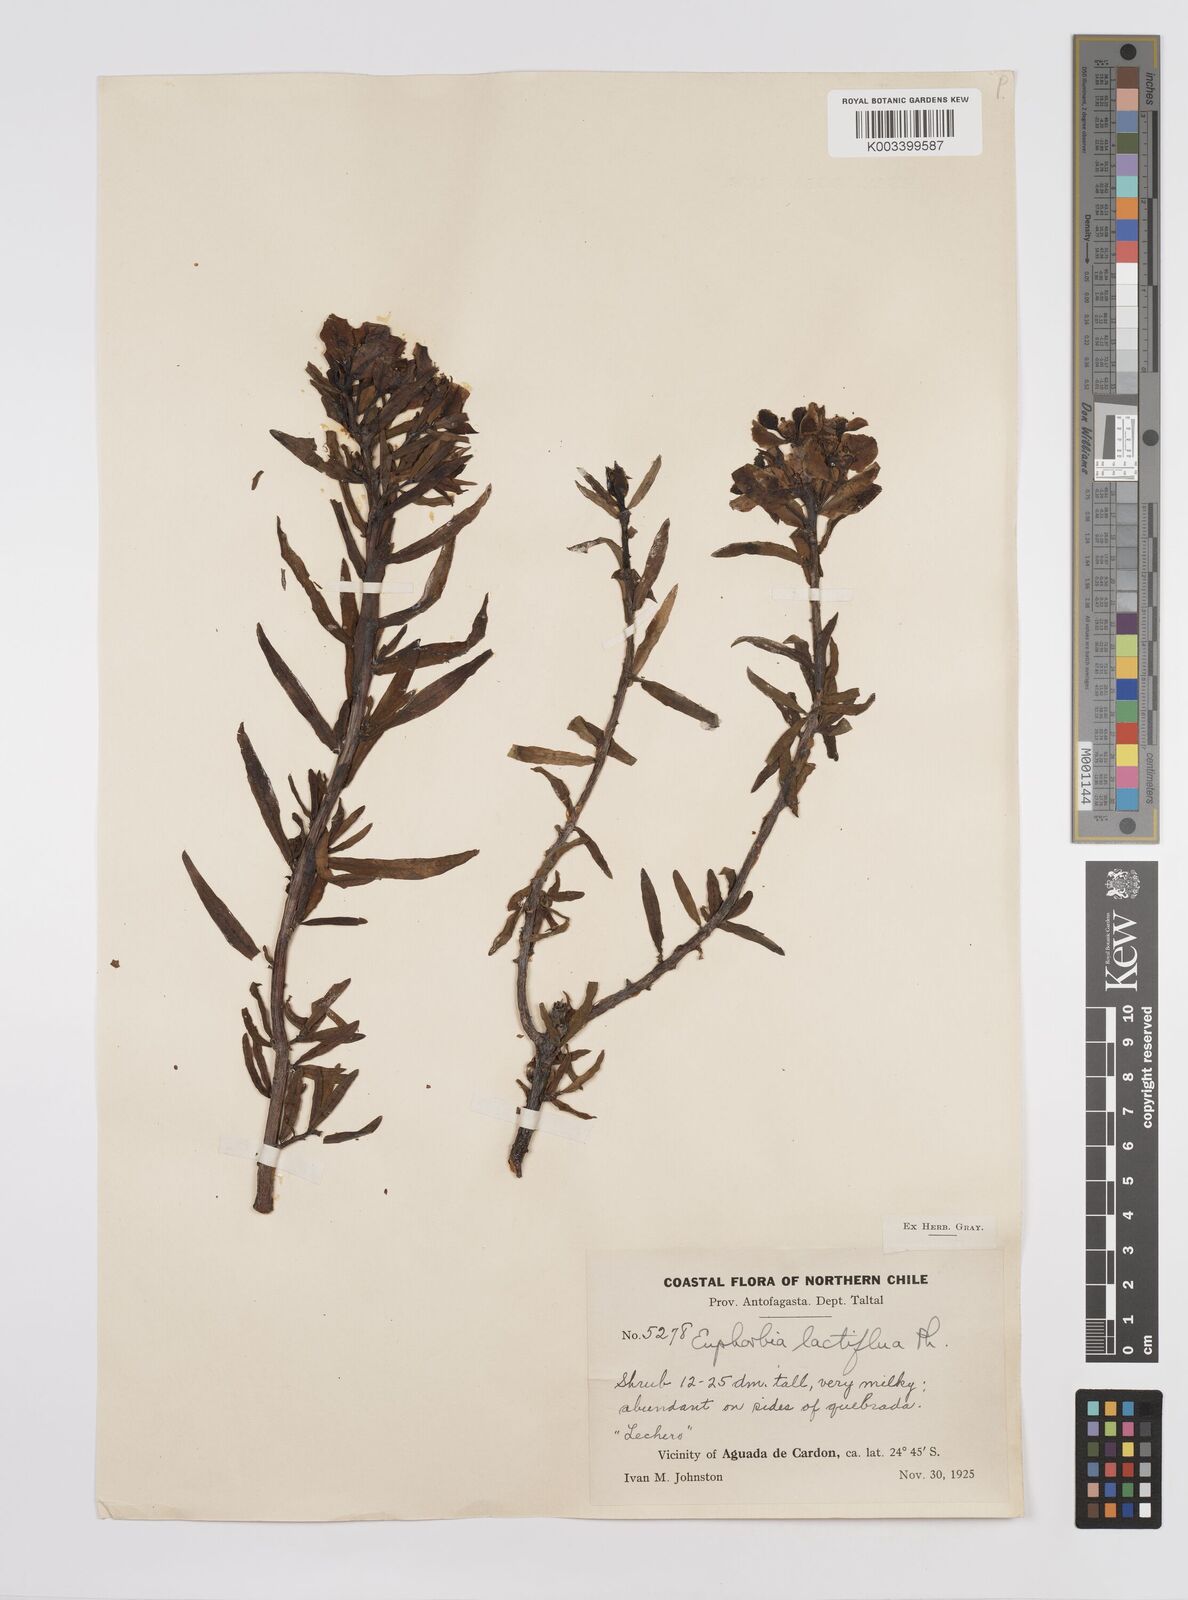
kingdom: Plantae
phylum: Tracheophyta
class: Magnoliopsida
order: Malpighiales
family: Euphorbiaceae
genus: Euphorbia
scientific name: Euphorbia lactiflua
